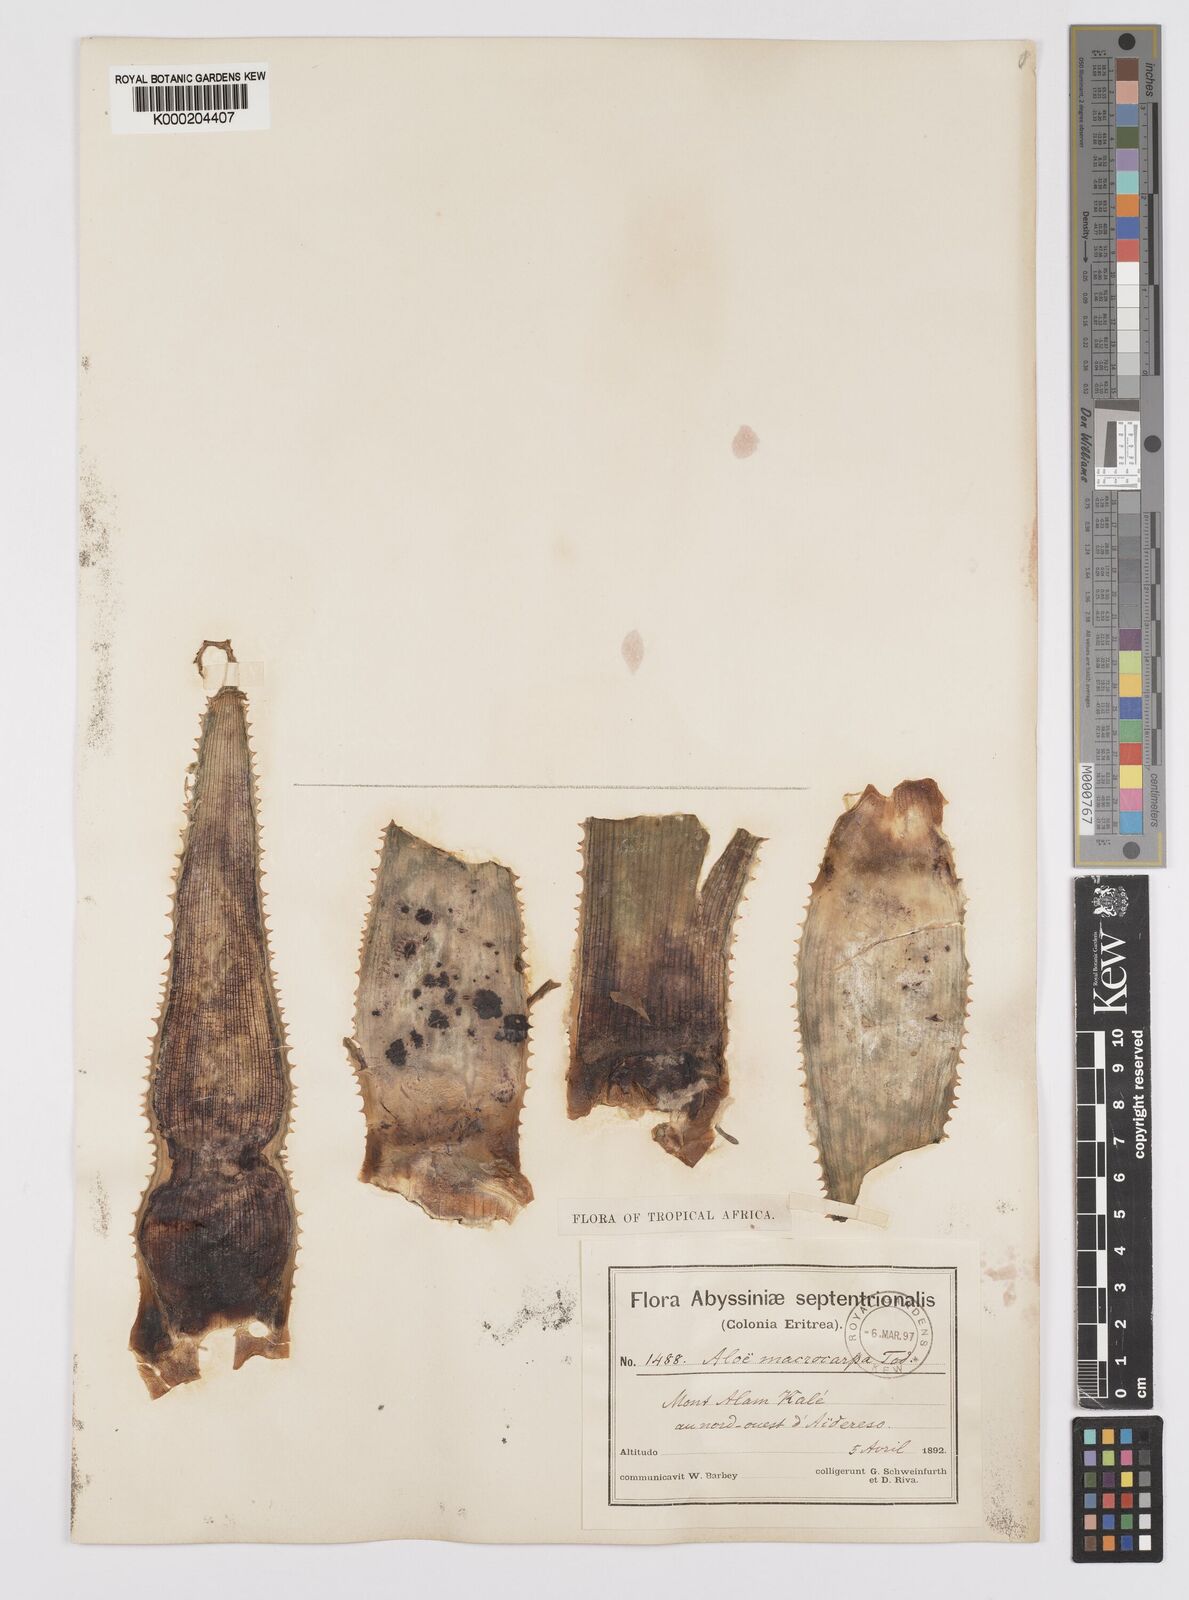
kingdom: Plantae
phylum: Tracheophyta
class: Liliopsida
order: Asparagales
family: Asphodelaceae
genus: Aloe
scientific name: Aloe macrocarpa
